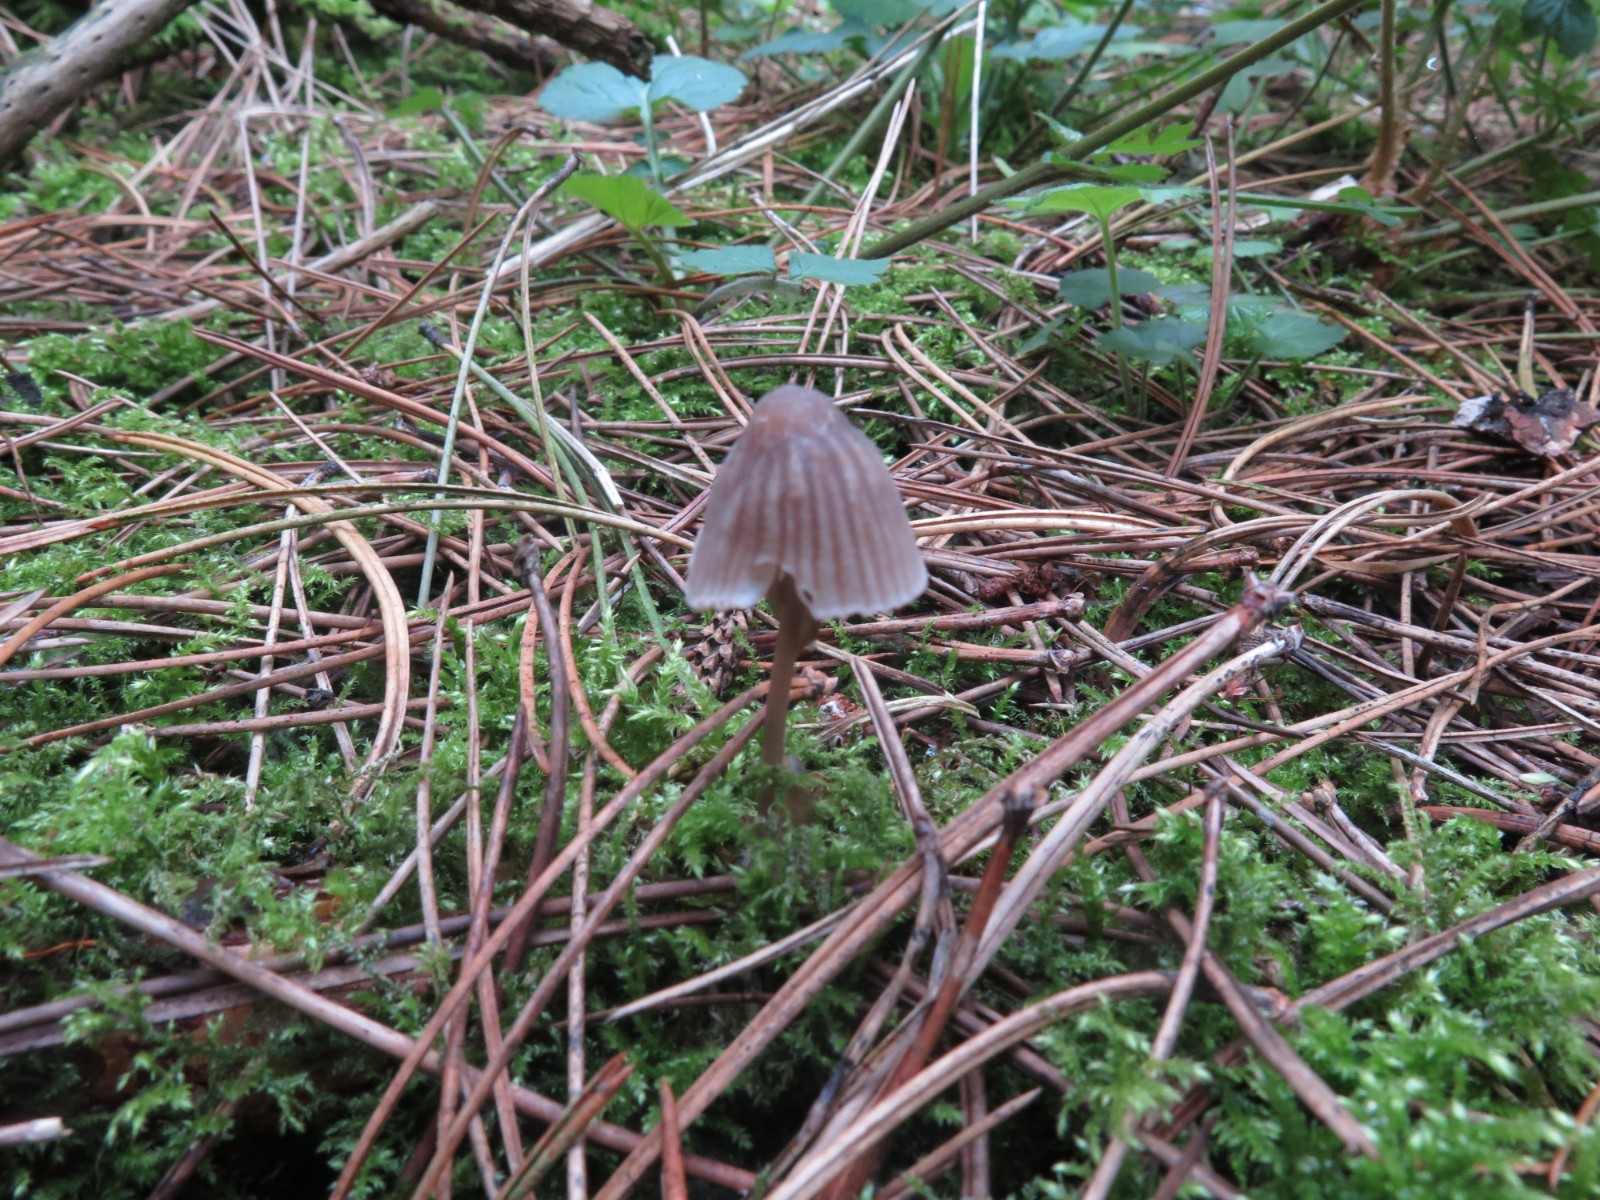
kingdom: Fungi
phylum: Basidiomycota
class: Agaricomycetes
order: Agaricales
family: Mycenaceae
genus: Mycena
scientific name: Mycena galericulata
